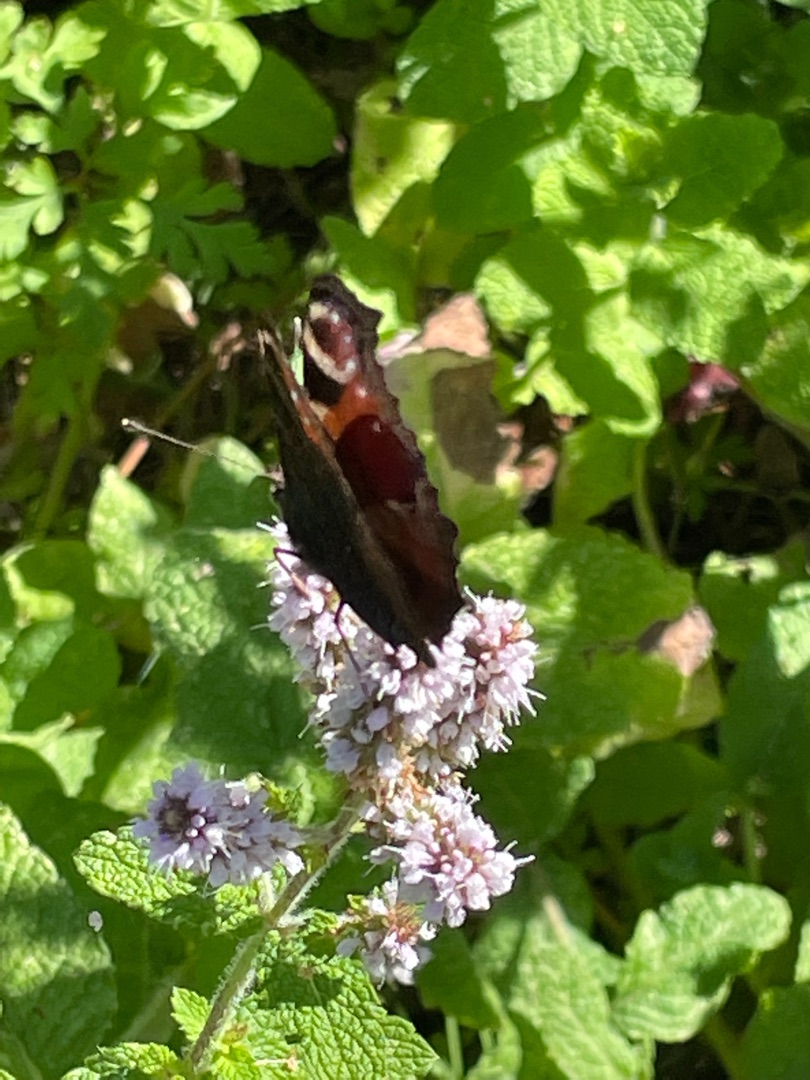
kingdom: Animalia
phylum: Arthropoda
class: Insecta
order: Lepidoptera
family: Nymphalidae
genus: Aglais
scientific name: Aglais io
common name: Dagpåfugleøje
